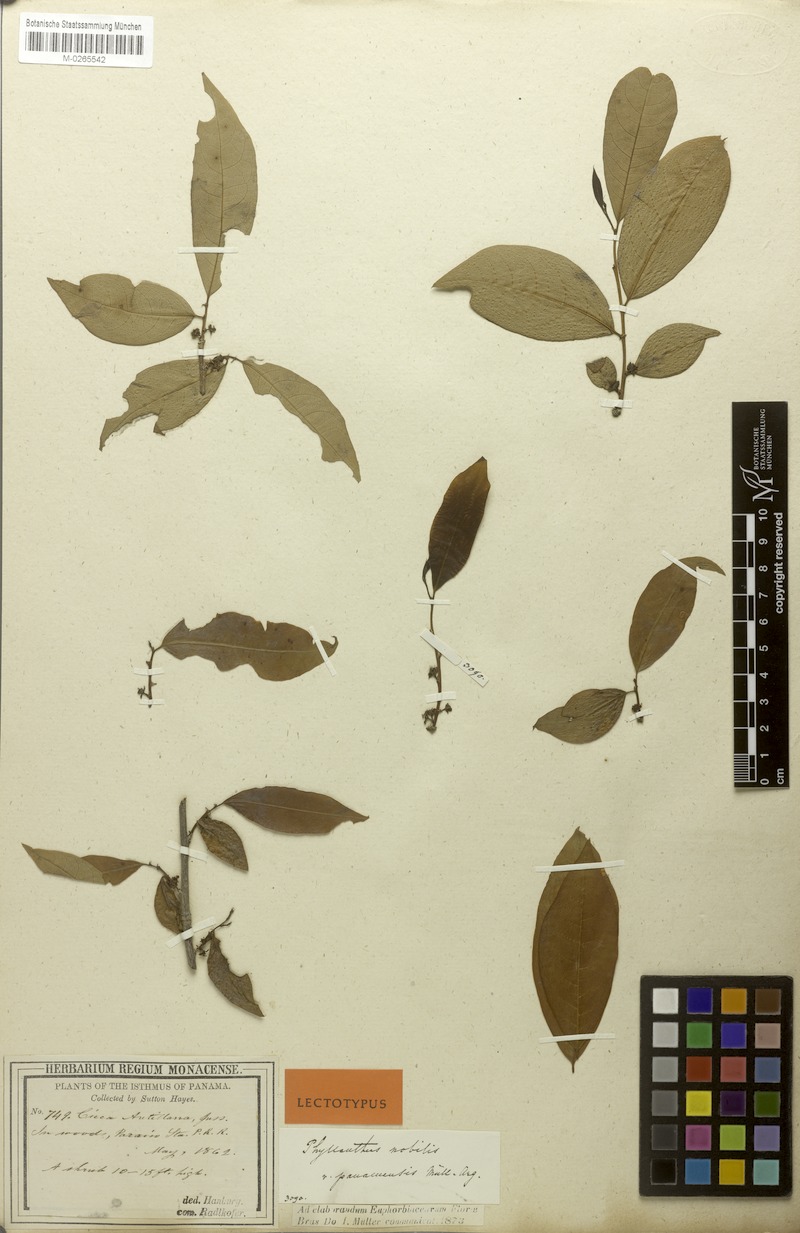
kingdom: Plantae
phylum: Tracheophyta
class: Magnoliopsida
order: Malpighiales
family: Phyllanthaceae
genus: Margaritaria
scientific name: Margaritaria nobilis
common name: Goose berry
